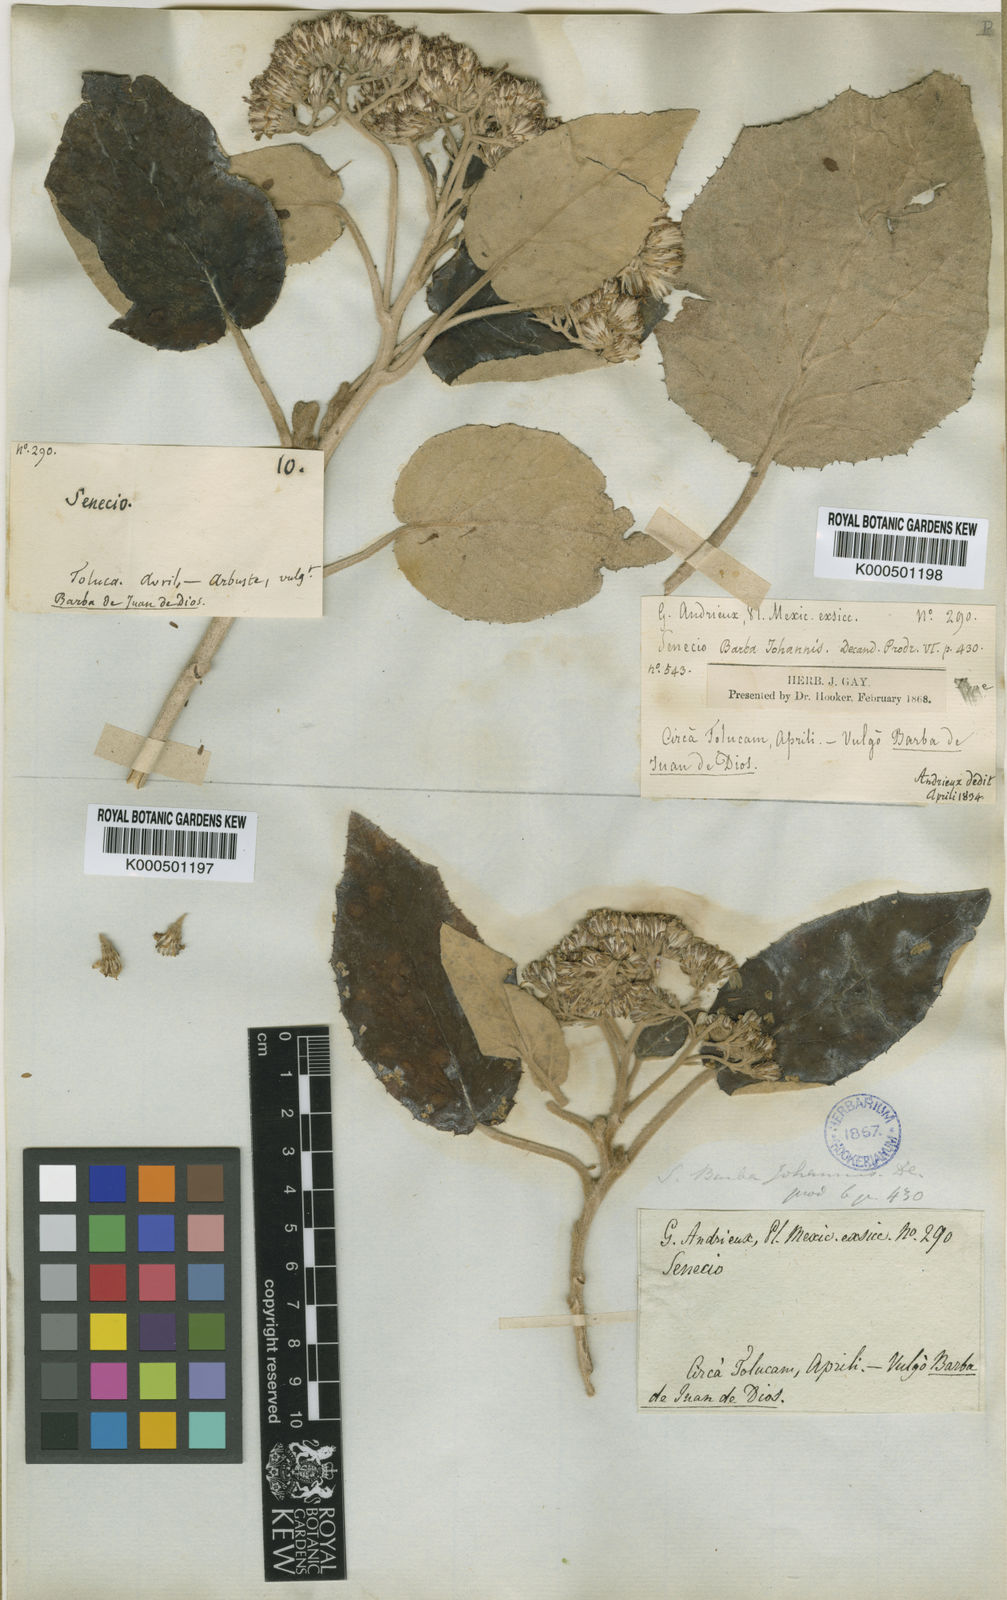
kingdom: Plantae
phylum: Tracheophyta
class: Magnoliopsida
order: Asterales
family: Asteraceae
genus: Roldana
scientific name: Roldana barba-johannis
